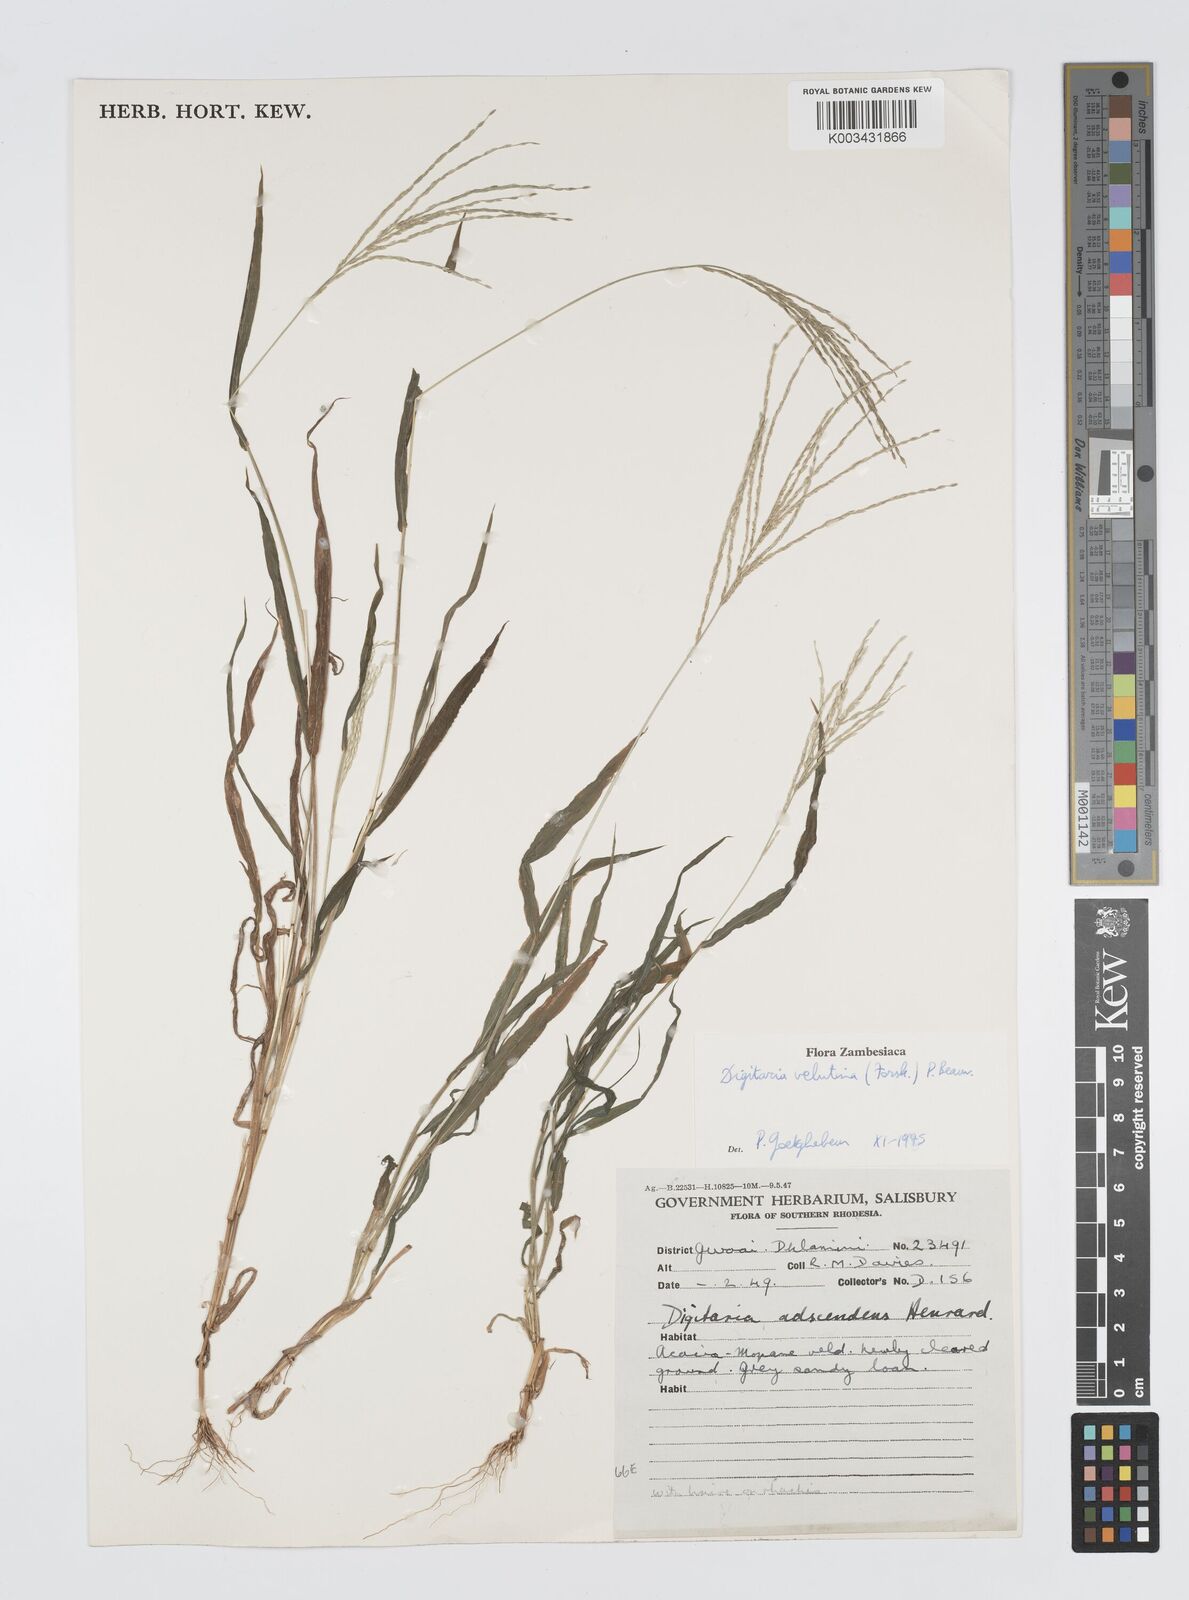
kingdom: Plantae
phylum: Tracheophyta
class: Liliopsida
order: Poales
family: Poaceae
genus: Digitaria
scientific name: Digitaria velutina
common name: Long-plume finger grass
